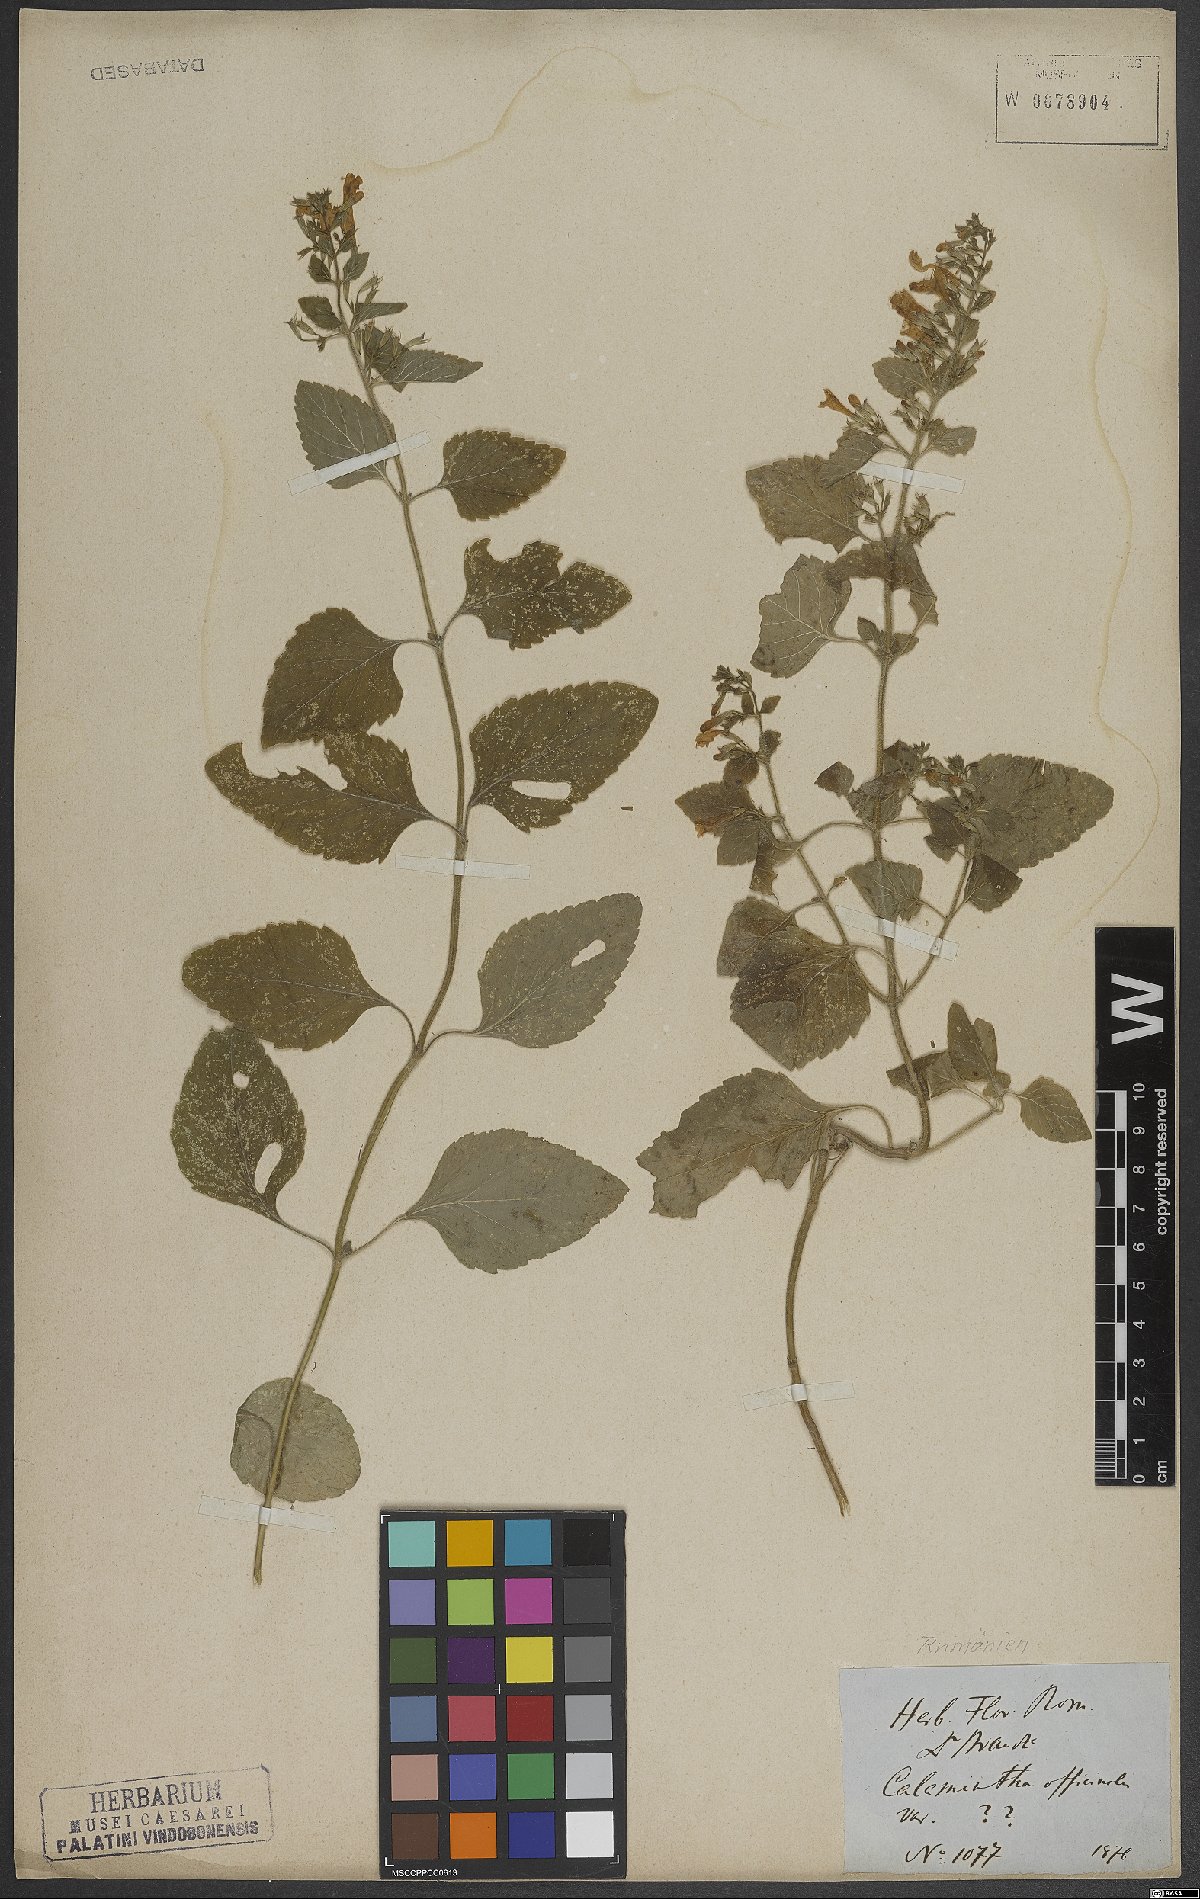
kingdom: Plantae
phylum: Tracheophyta
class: Magnoliopsida
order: Lamiales
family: Lamiaceae
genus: Clinopodium
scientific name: Clinopodium nepeta
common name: Lesser calamint
